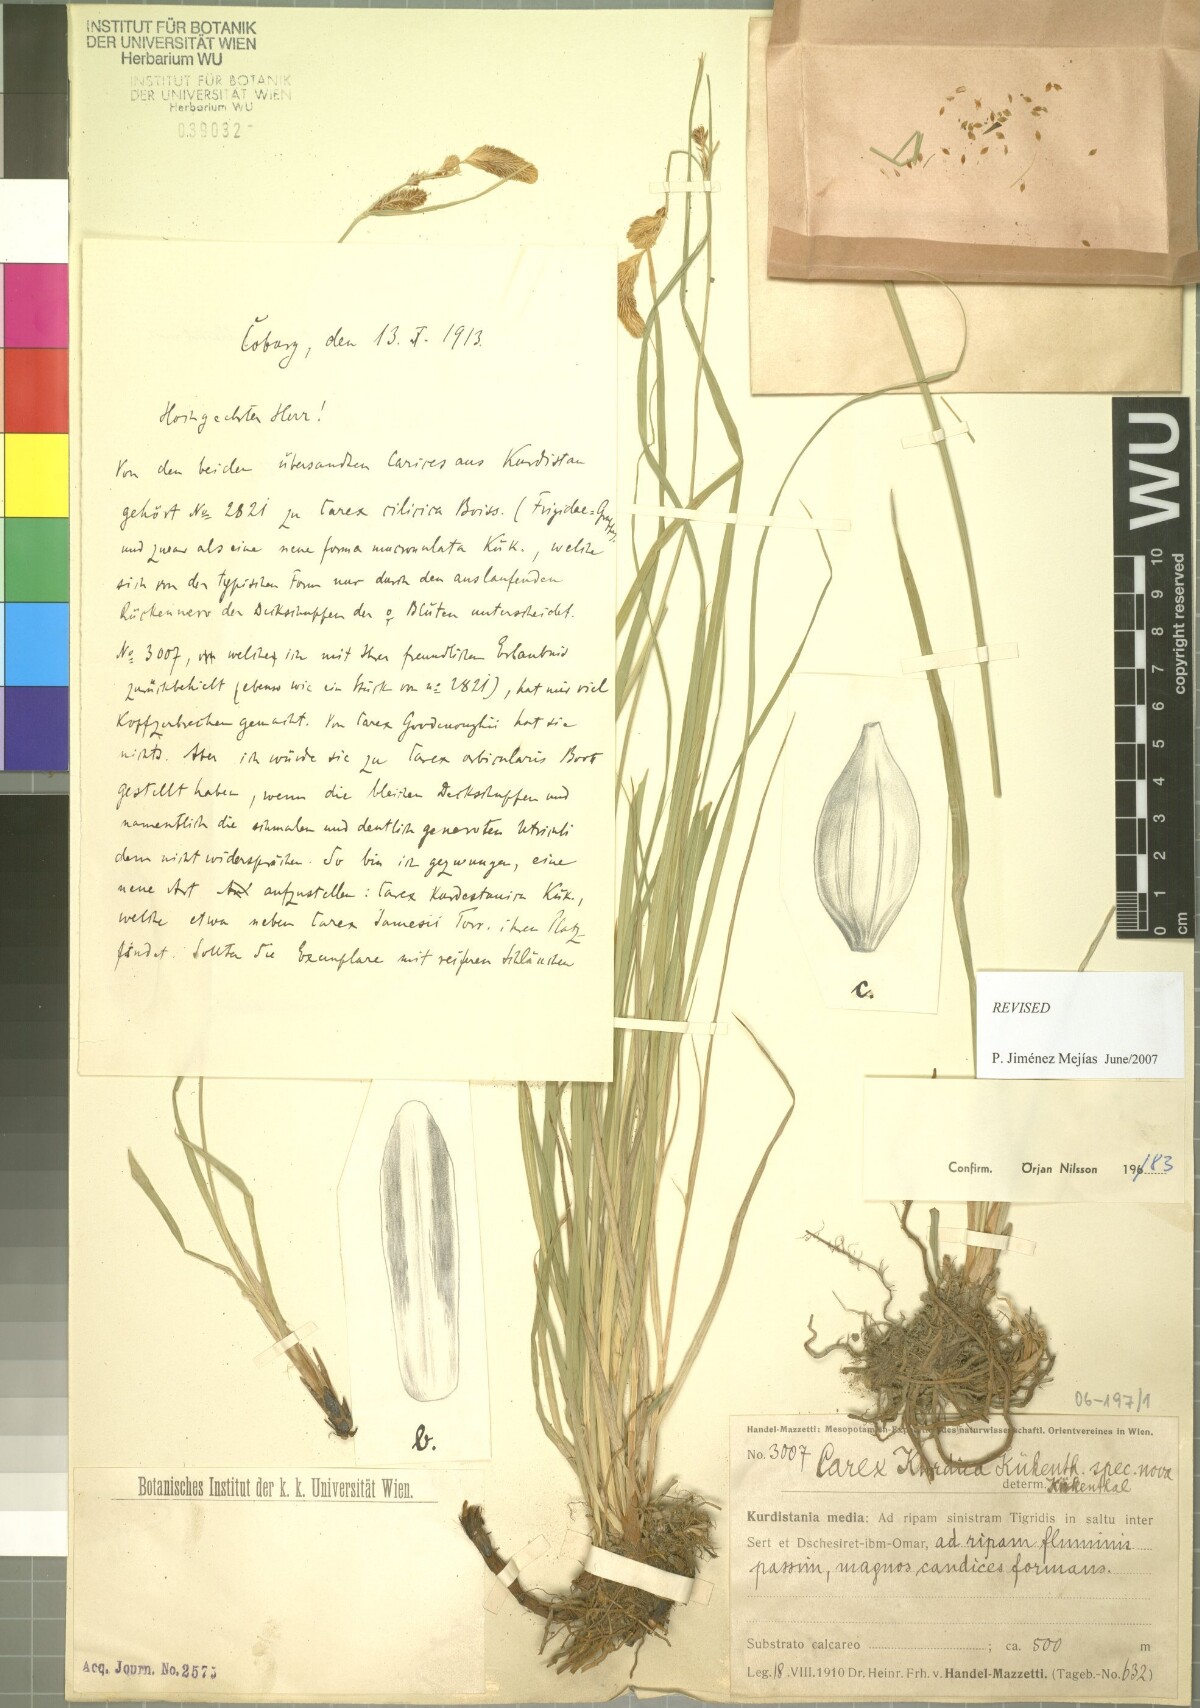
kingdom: Plantae
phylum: Tracheophyta
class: Liliopsida
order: Poales
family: Cyperaceae
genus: Carex
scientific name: Carex kurdica
